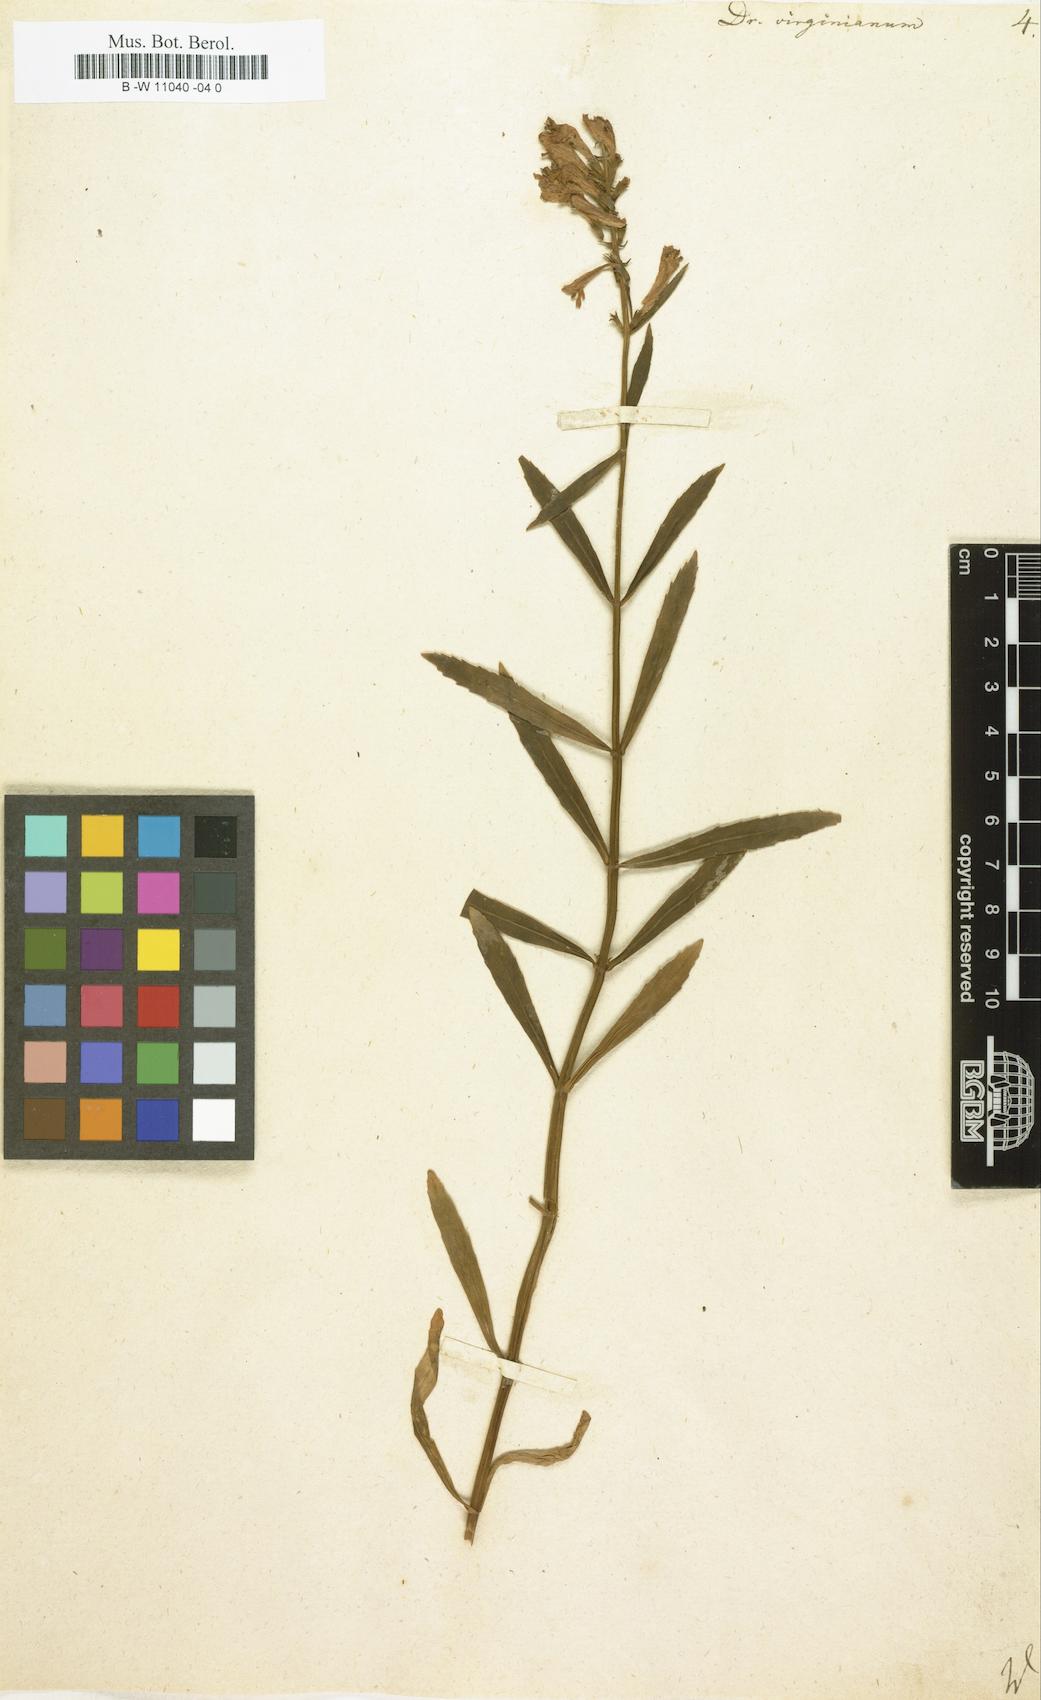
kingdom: Plantae
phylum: Tracheophyta
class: Magnoliopsida
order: Lamiales
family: Lamiaceae
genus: Physostegia
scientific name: Physostegia virginiana
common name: Obedient-plant
